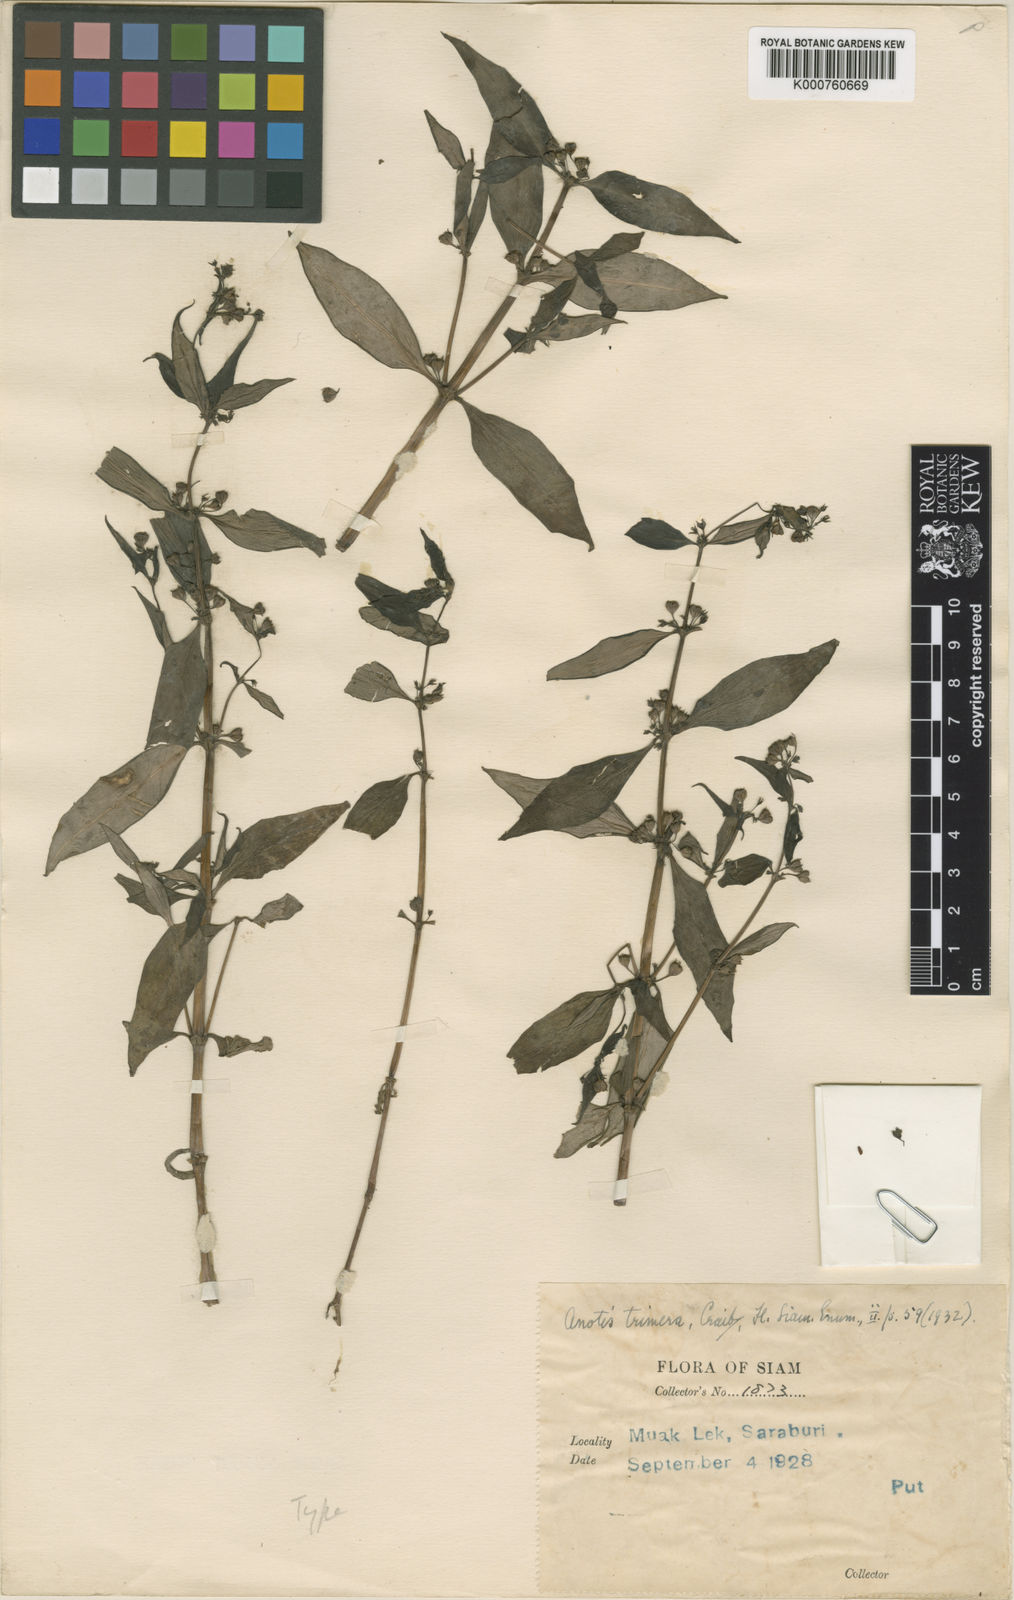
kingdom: Plantae
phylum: Tracheophyta
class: Magnoliopsida
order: Gentianales
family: Rubiaceae
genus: Neanotis
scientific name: Neanotis trimera
